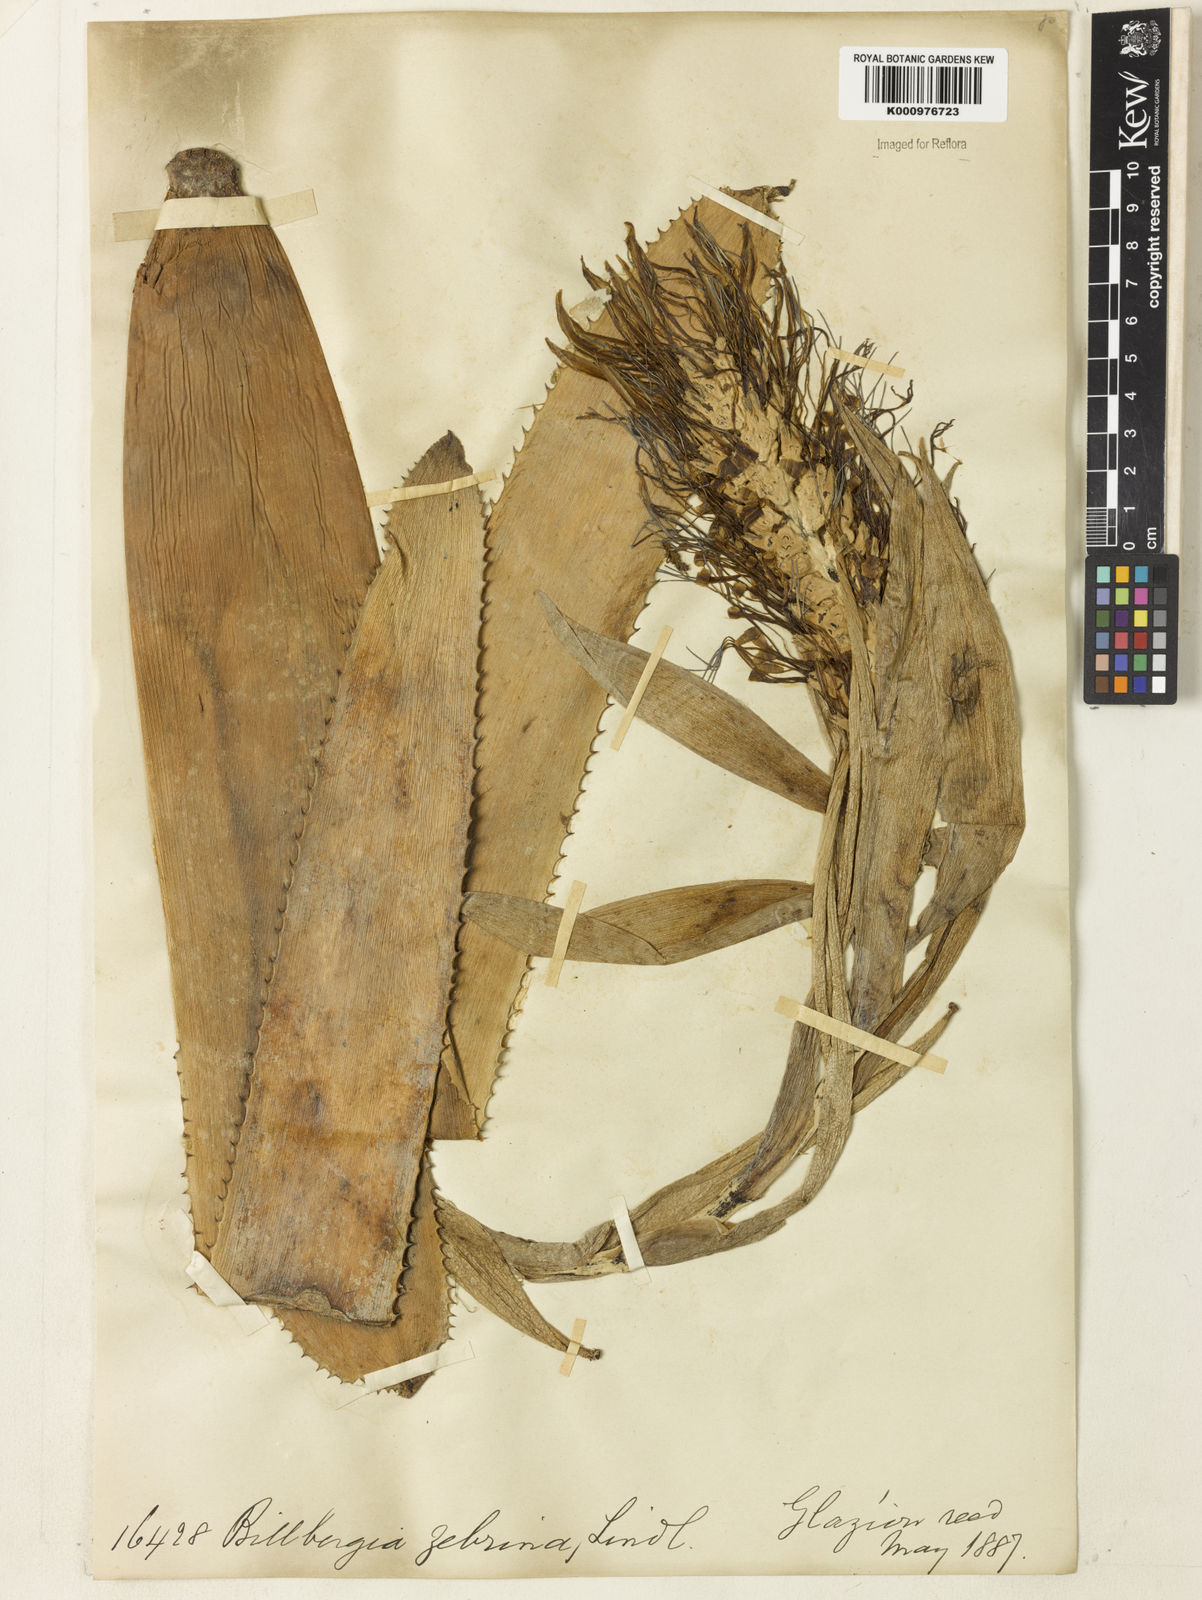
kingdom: Plantae
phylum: Tracheophyta
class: Liliopsida
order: Poales
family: Bromeliaceae
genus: Billbergia
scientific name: Billbergia zebrina
